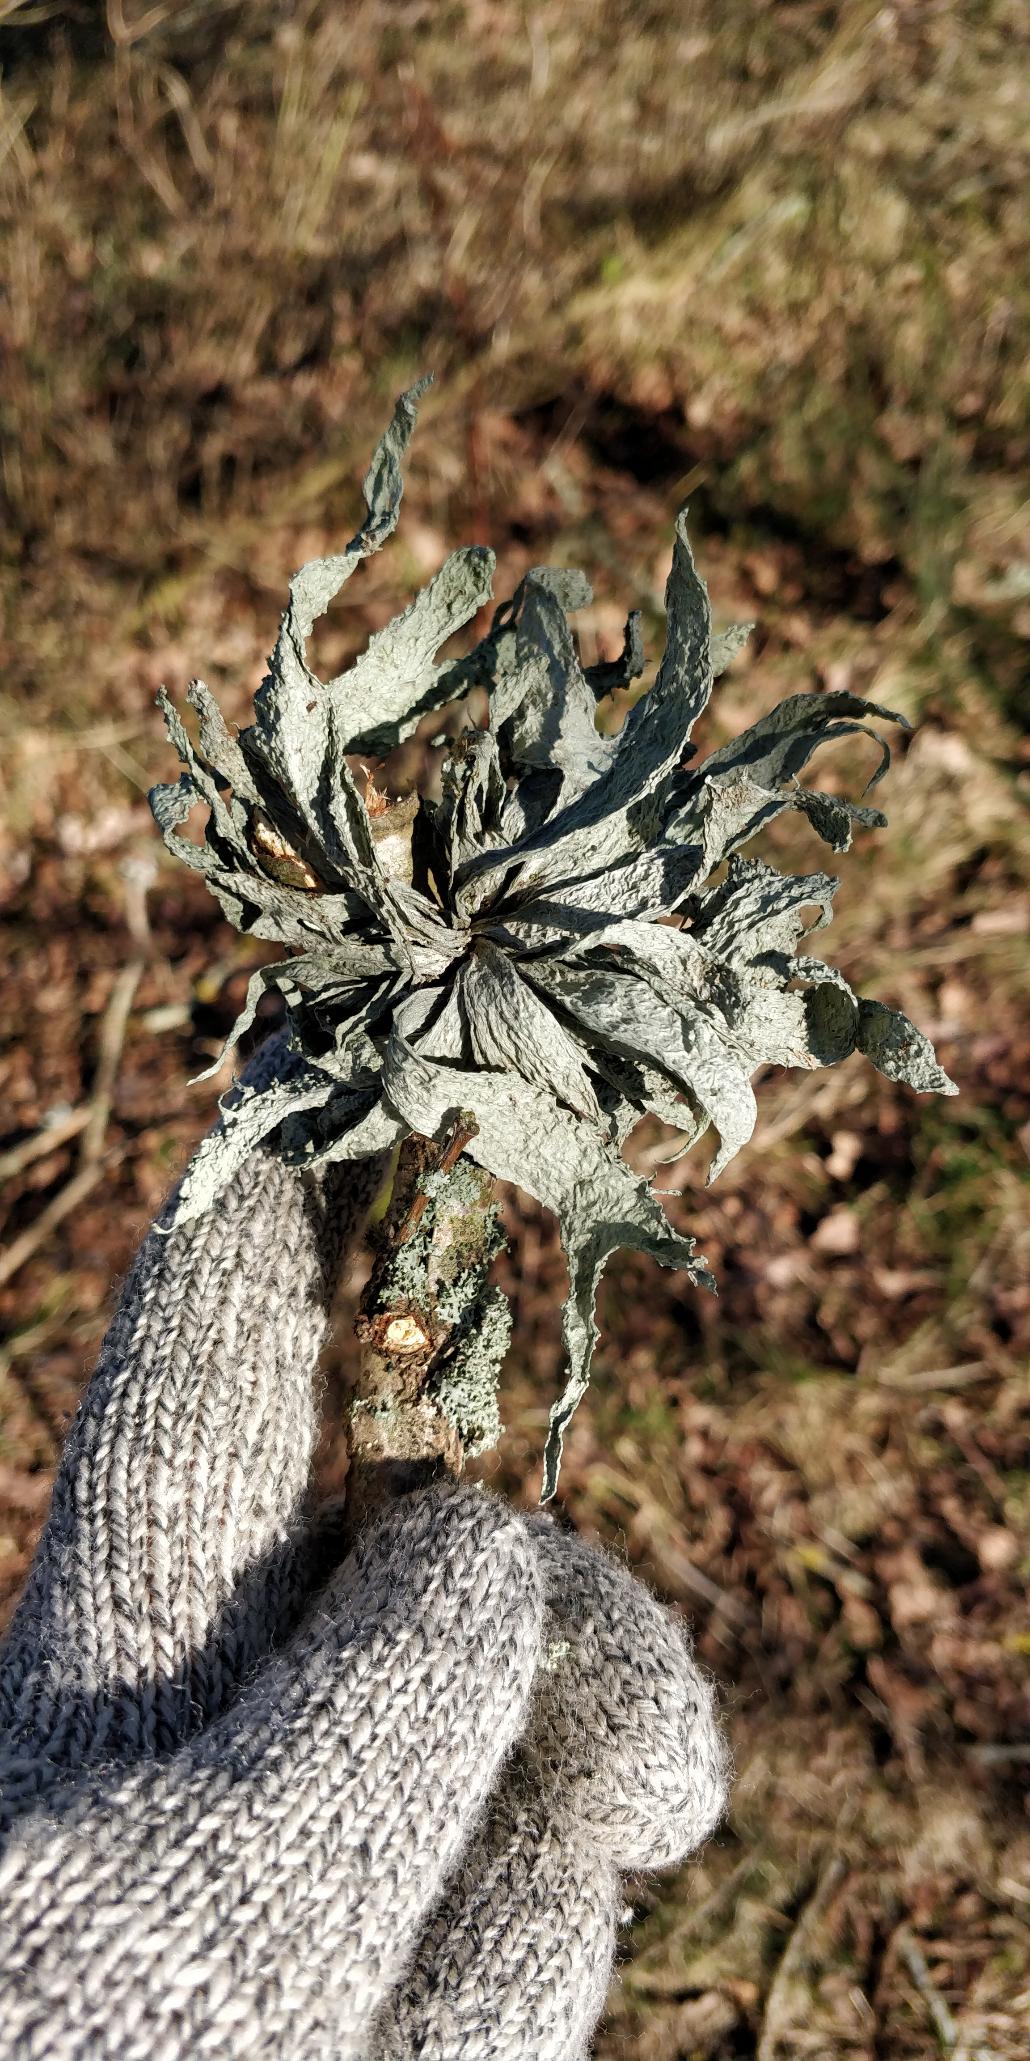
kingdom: Fungi
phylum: Ascomycota
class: Lecanoromycetes
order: Lecanorales
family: Ramalinaceae
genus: Ramalina
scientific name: Ramalina fraxinea
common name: Stor grenlav
